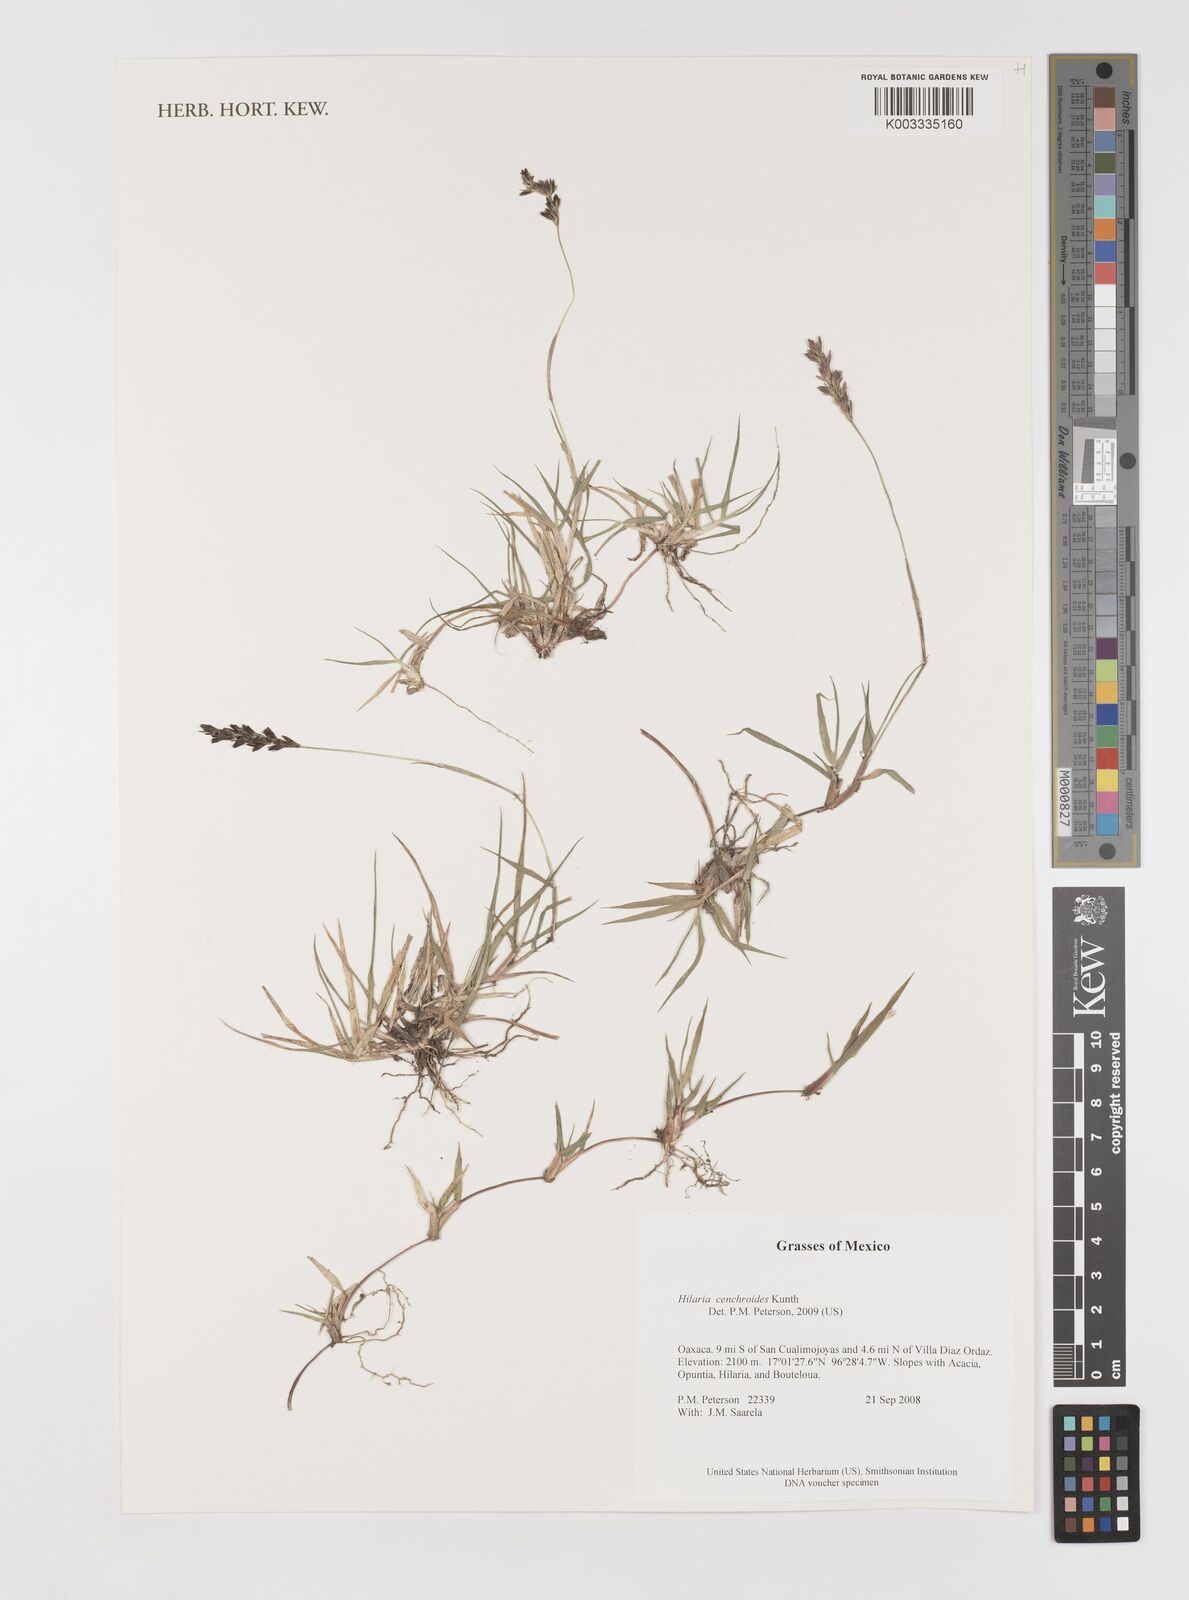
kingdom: Plantae
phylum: Tracheophyta
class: Liliopsida
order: Poales
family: Poaceae
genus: Hilaria
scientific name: Hilaria cenchroides
